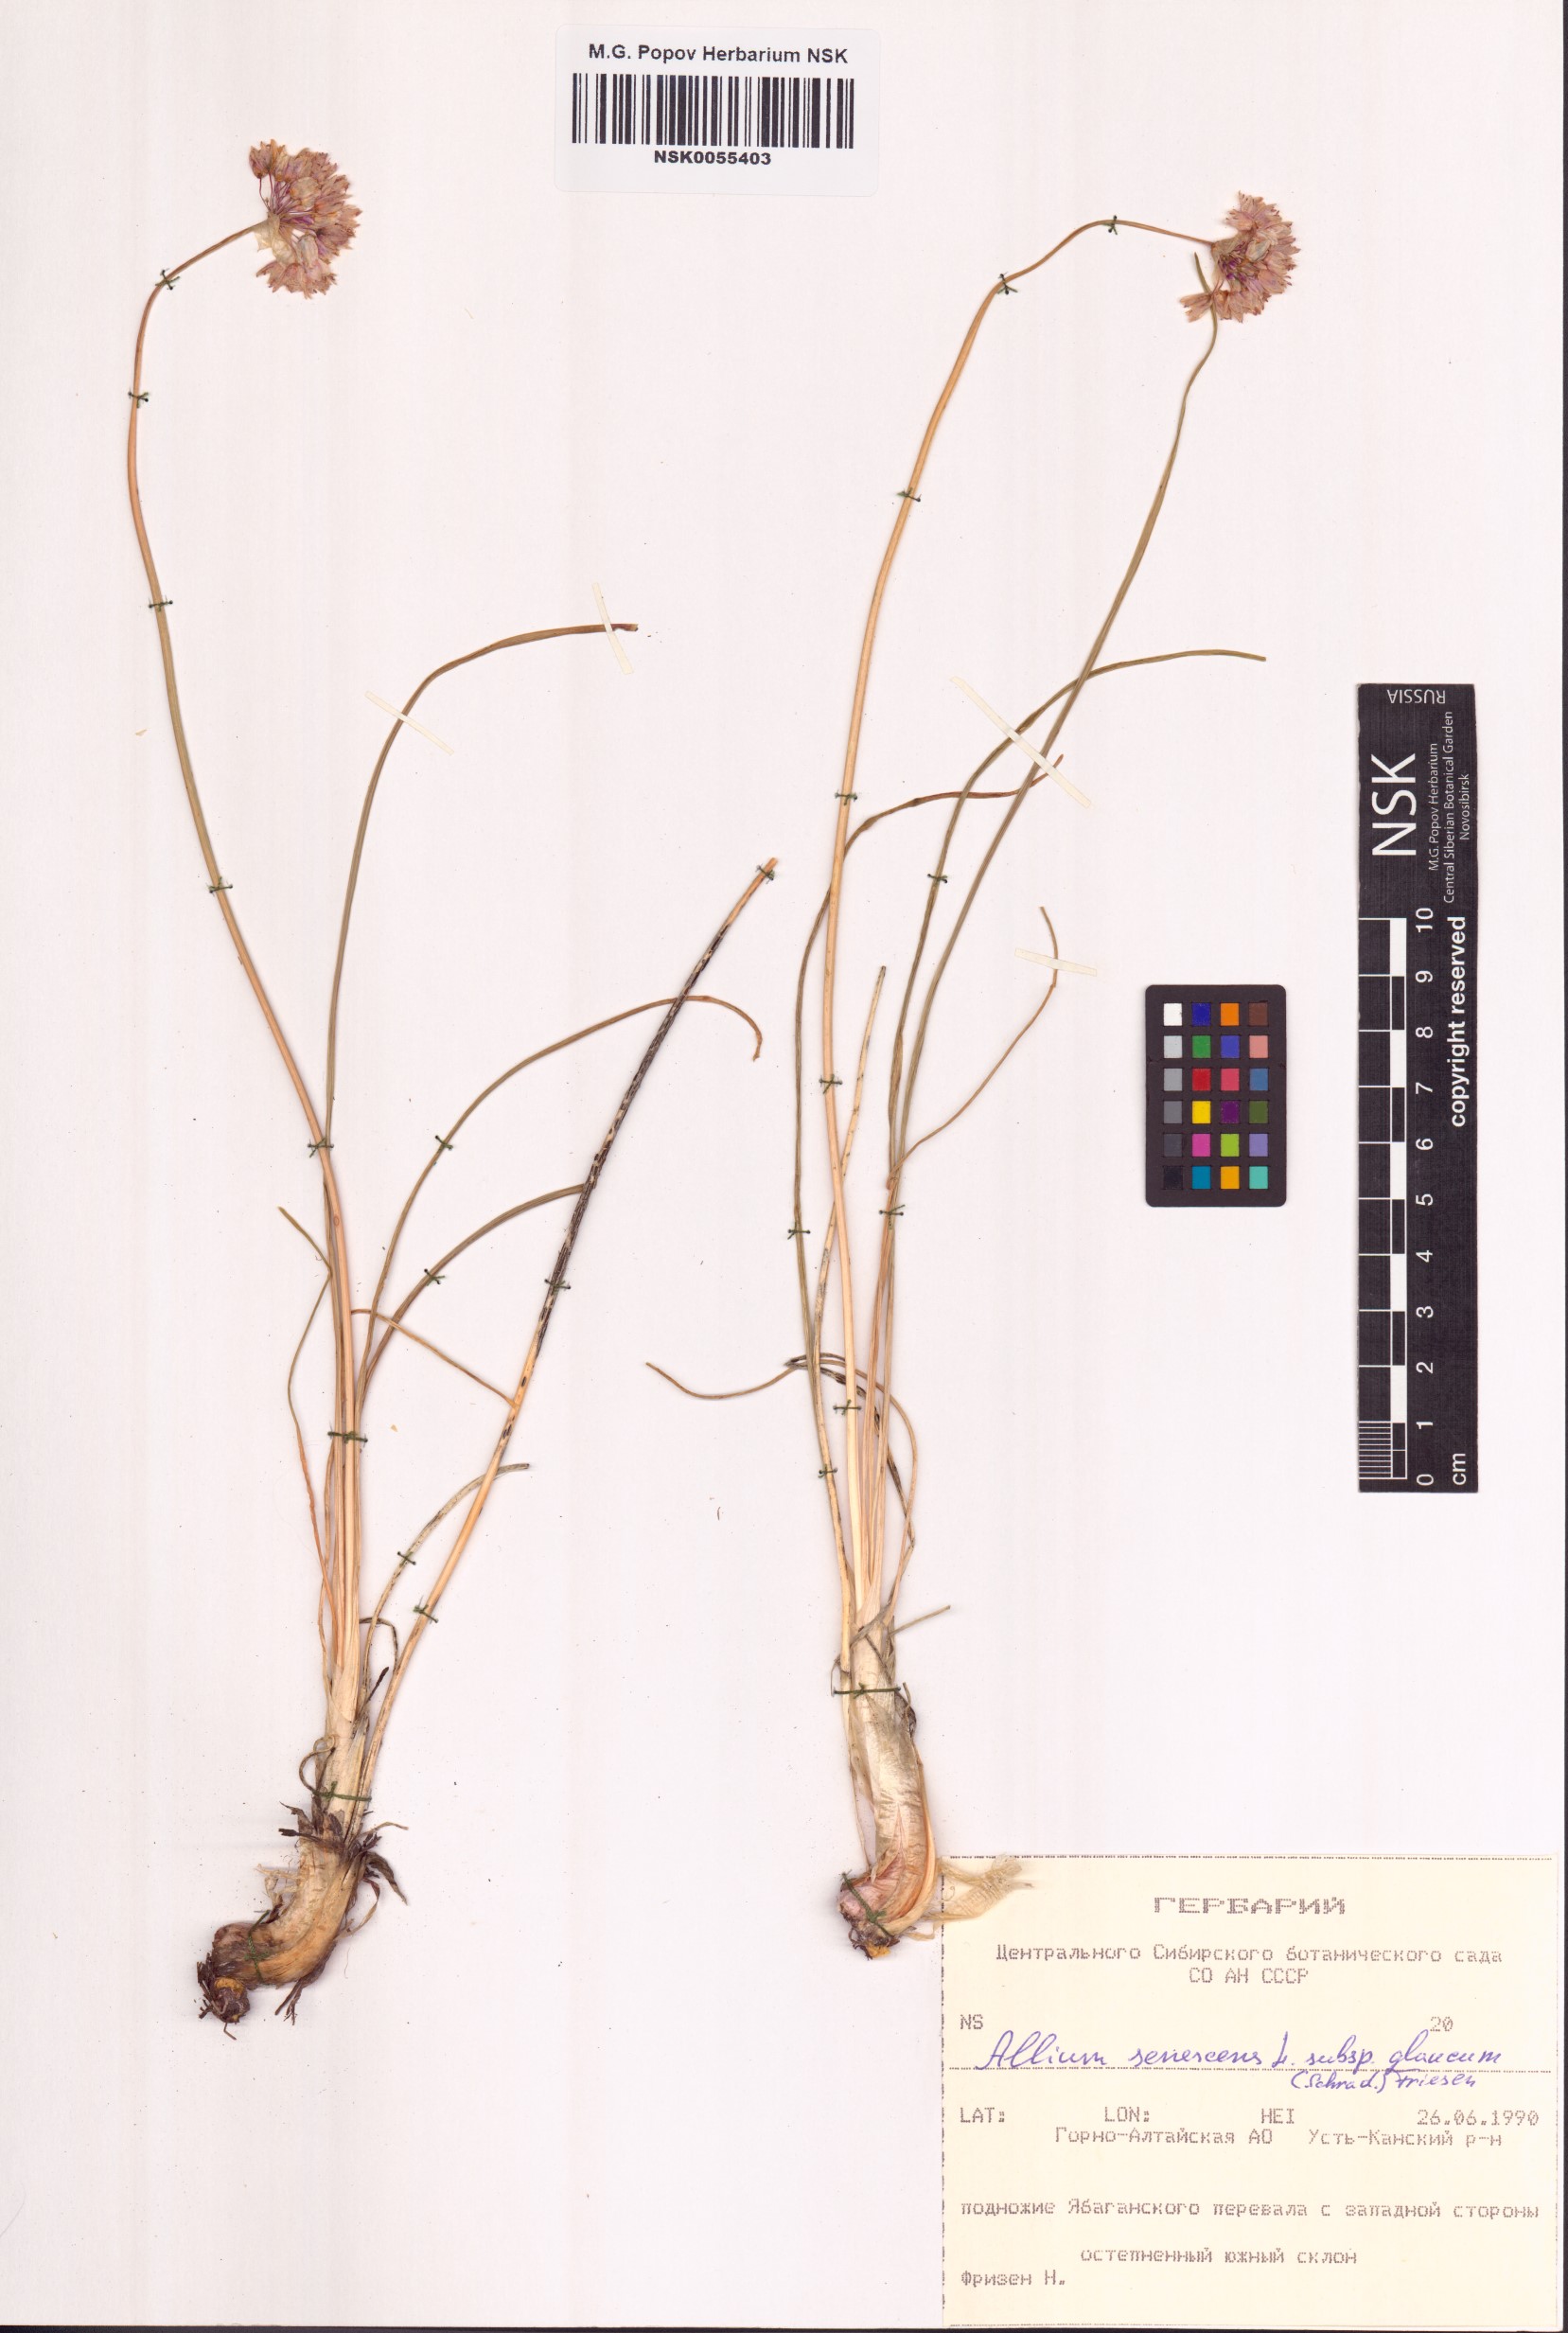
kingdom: Plantae
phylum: Tracheophyta
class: Liliopsida
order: Asparagales
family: Amaryllidaceae
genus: Allium
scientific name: Allium senescens
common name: German garlic
